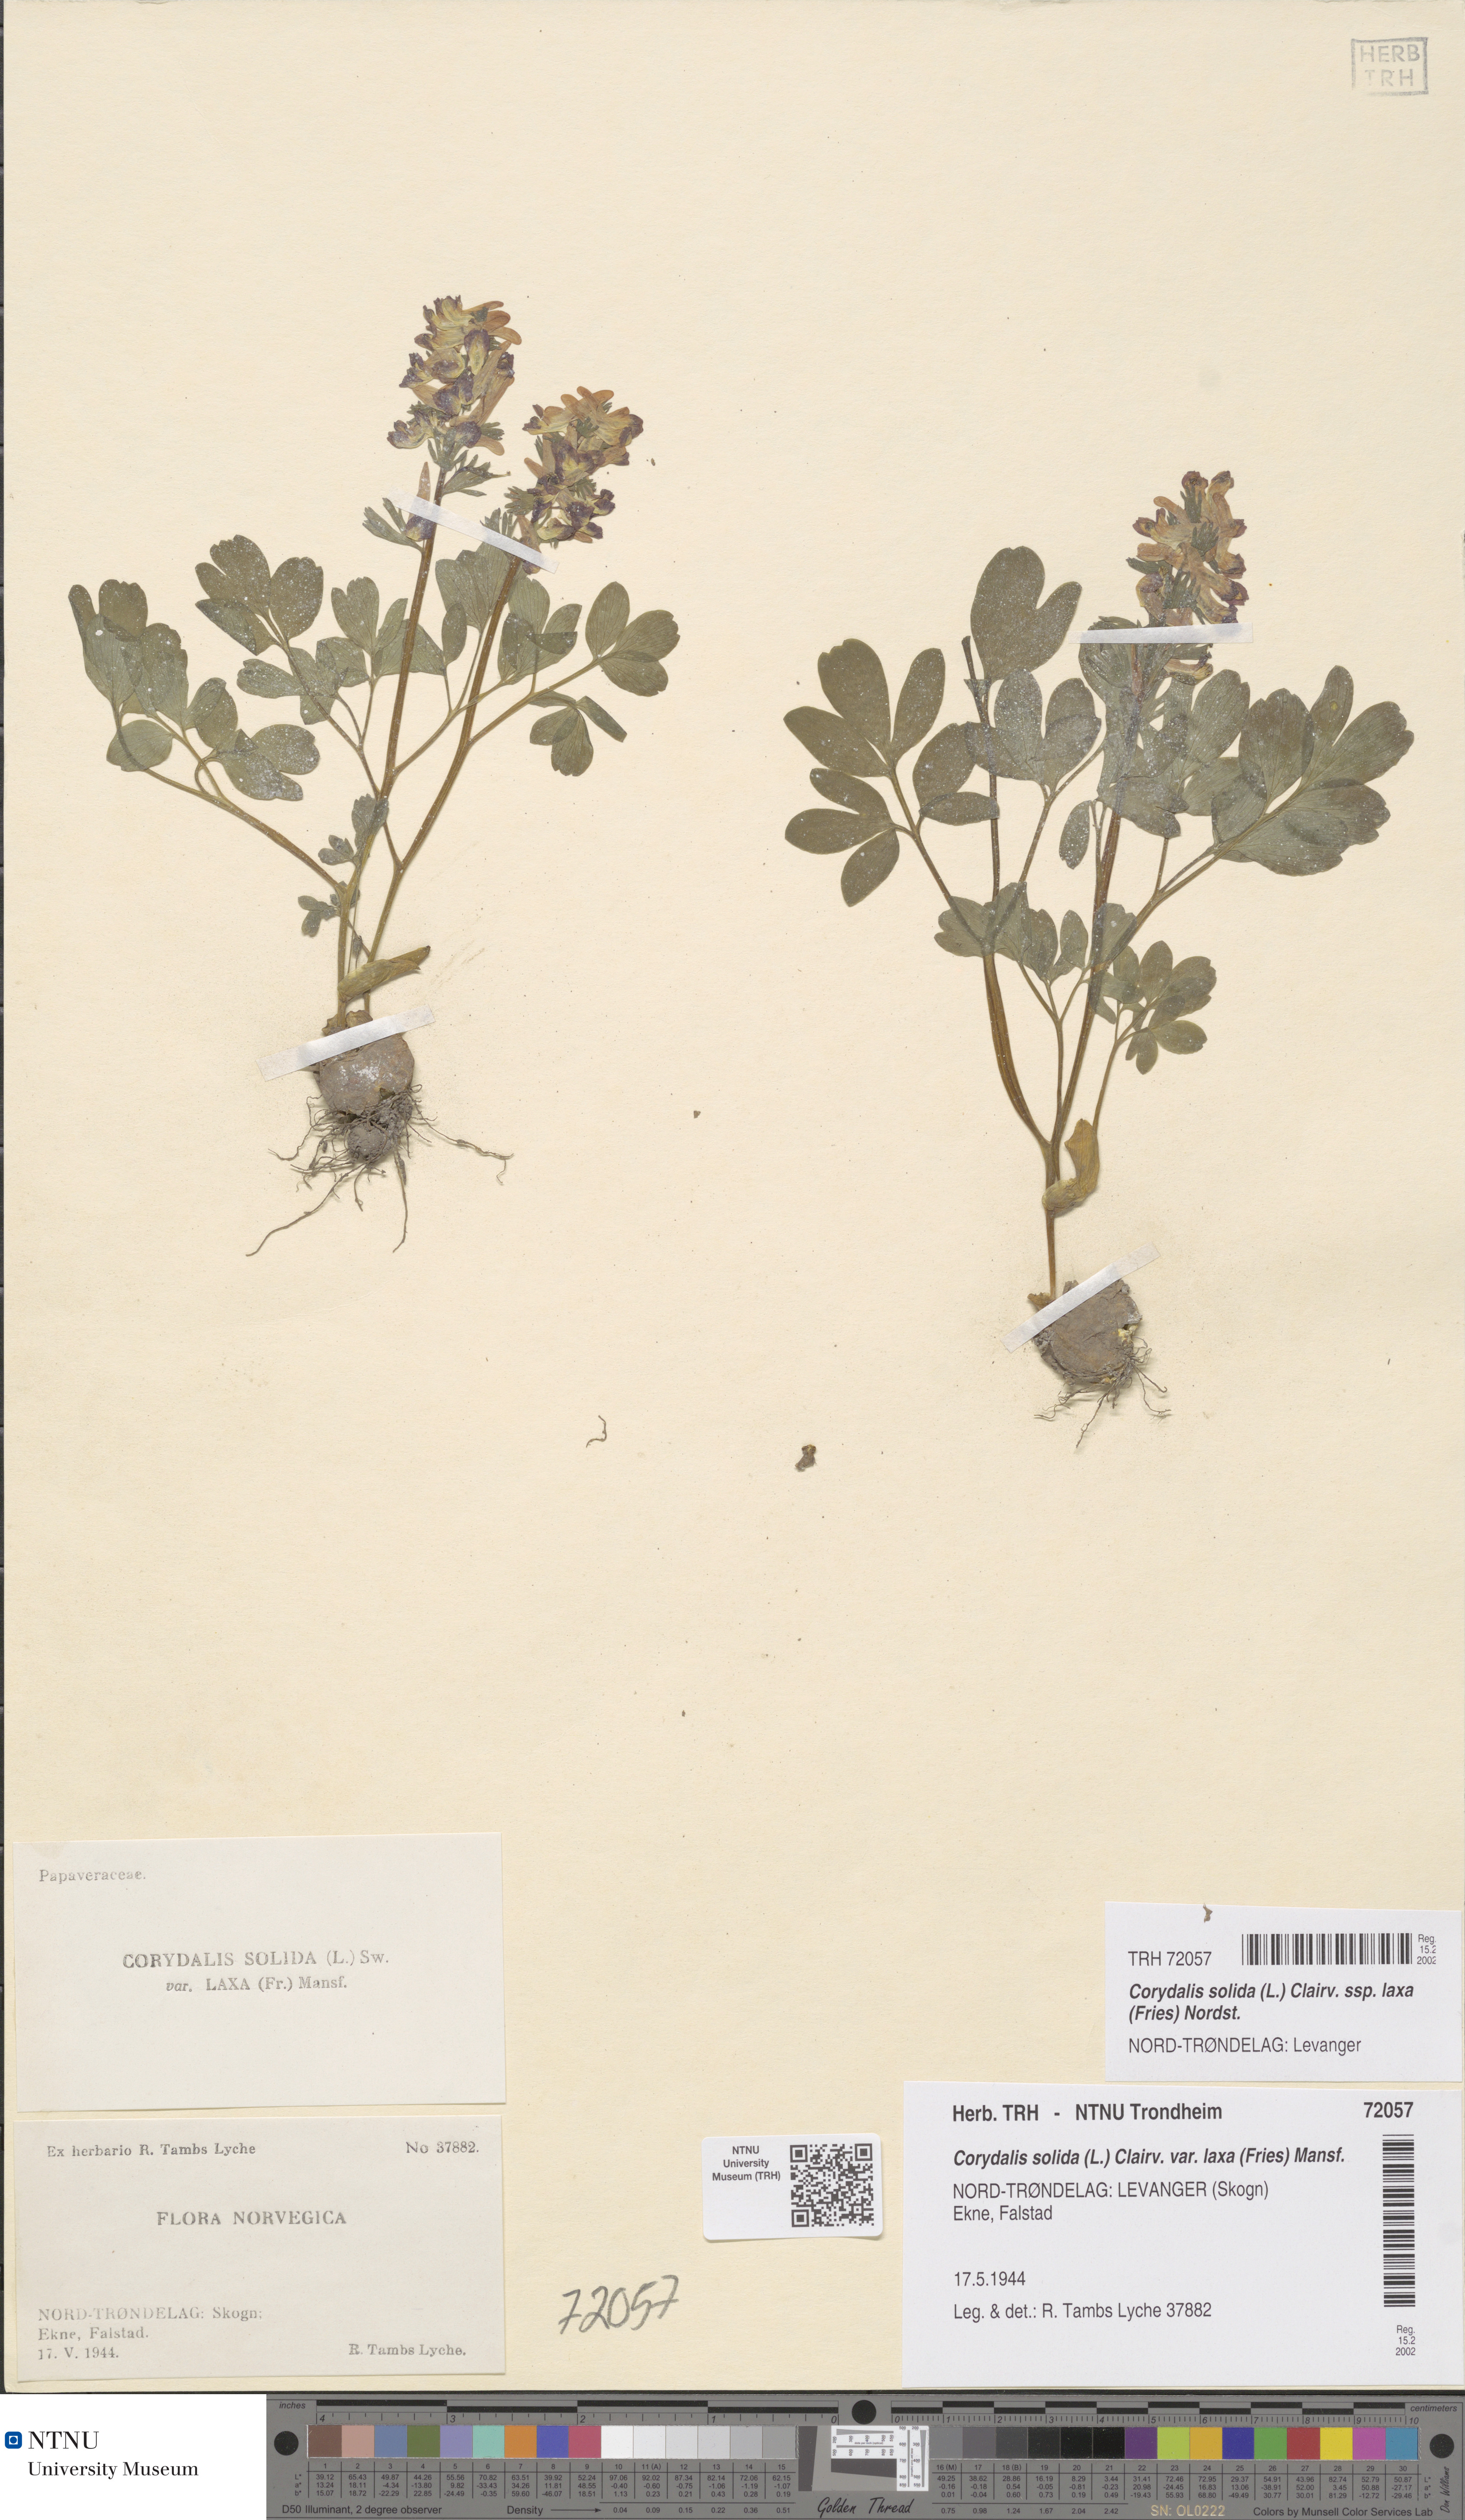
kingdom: Plantae
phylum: Tracheophyta
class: Magnoliopsida
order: Ranunculales
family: Papaveraceae
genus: Corydalis
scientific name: Corydalis solida
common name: Bird-in-a-bush
